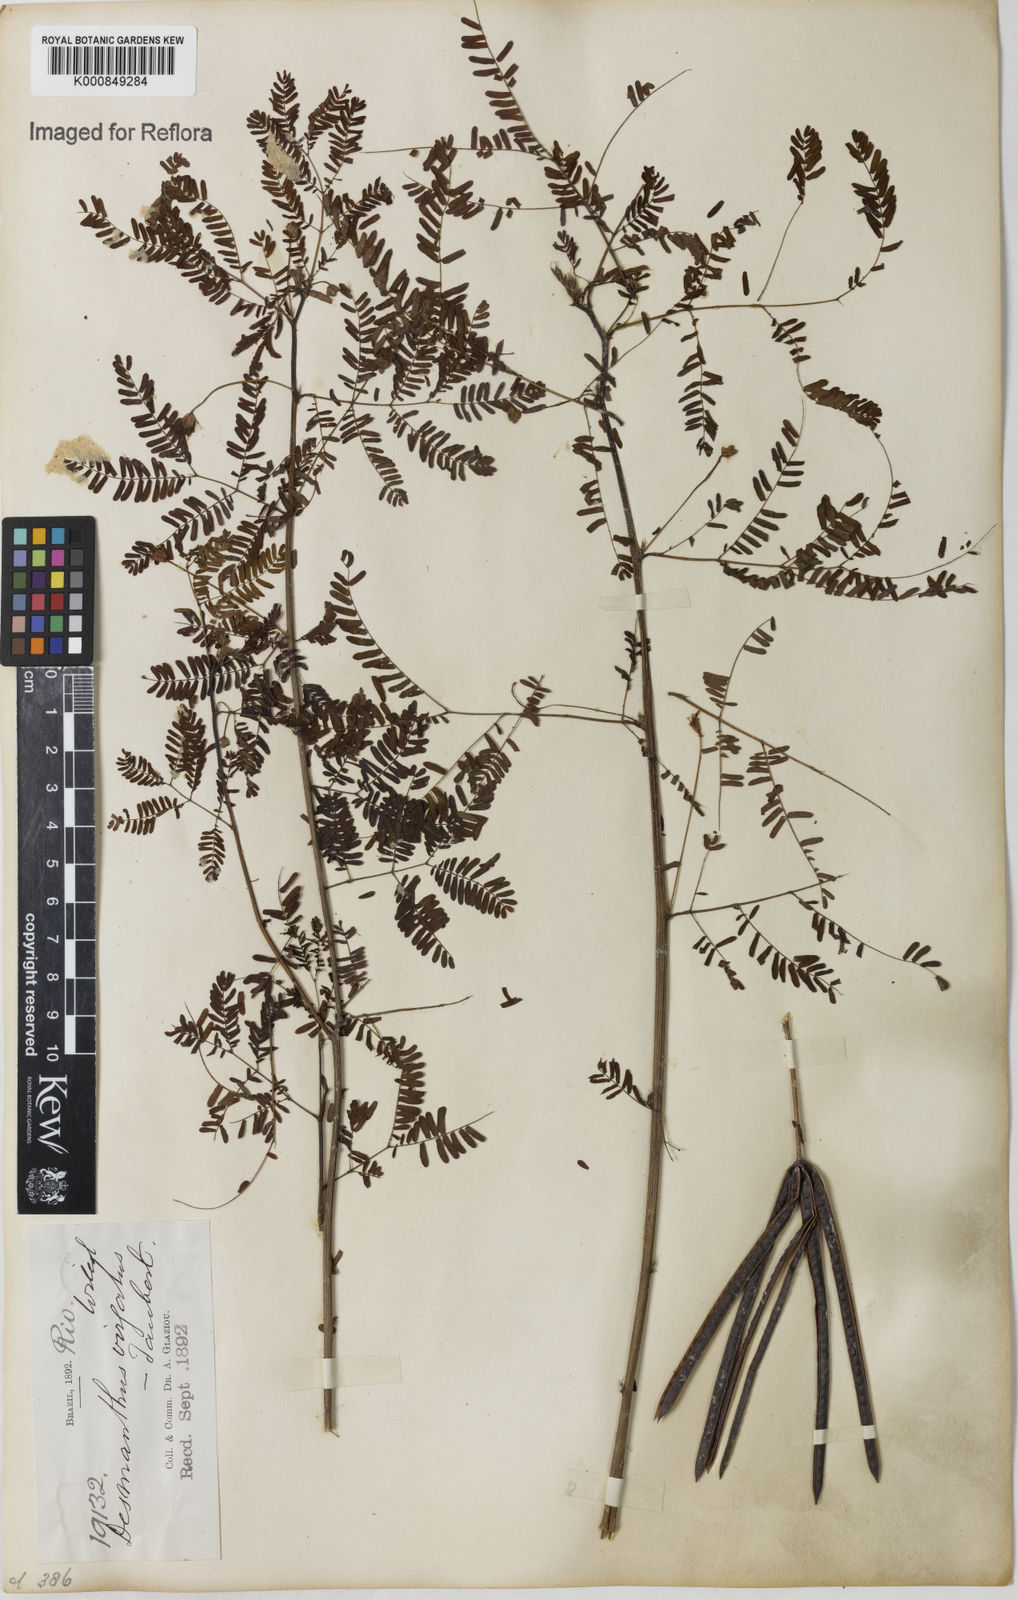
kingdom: Plantae
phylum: Tracheophyta
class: Magnoliopsida
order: Fabales
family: Fabaceae
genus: Desmanthus
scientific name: Desmanthus virgatus
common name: Wild tantan
